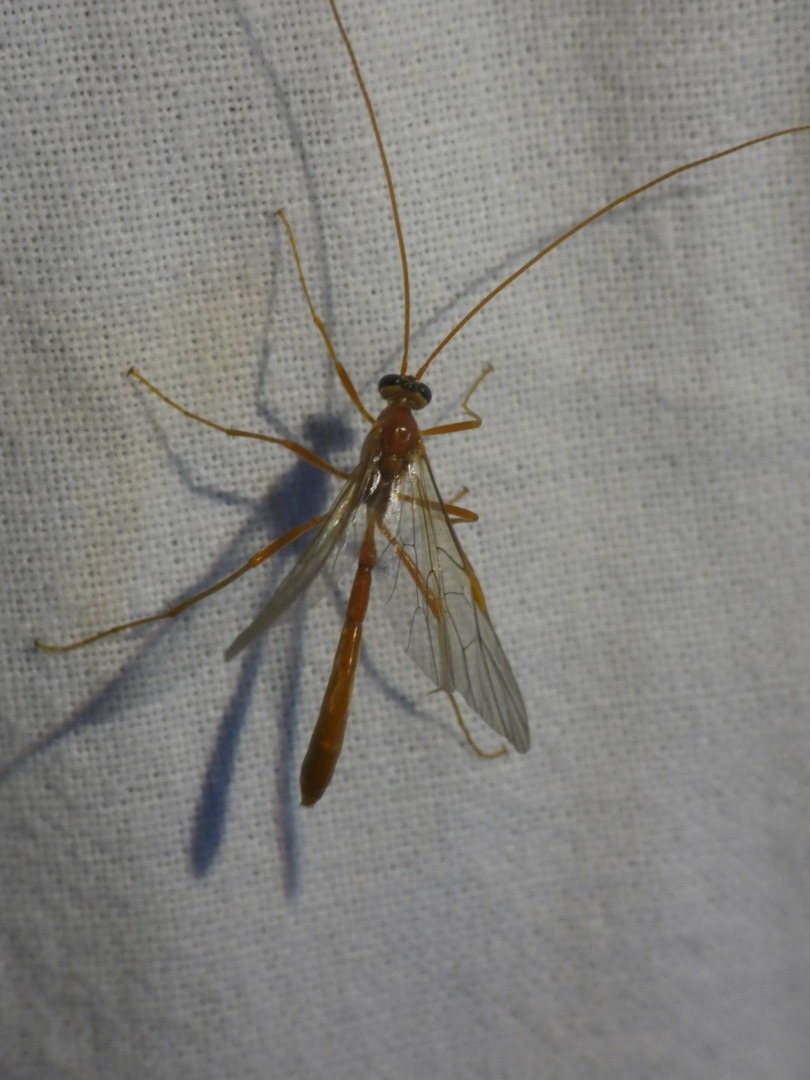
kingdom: Animalia
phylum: Arthropoda
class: Insecta
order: Hymenoptera
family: Ichneumonidae
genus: Ophion
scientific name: Ophion
